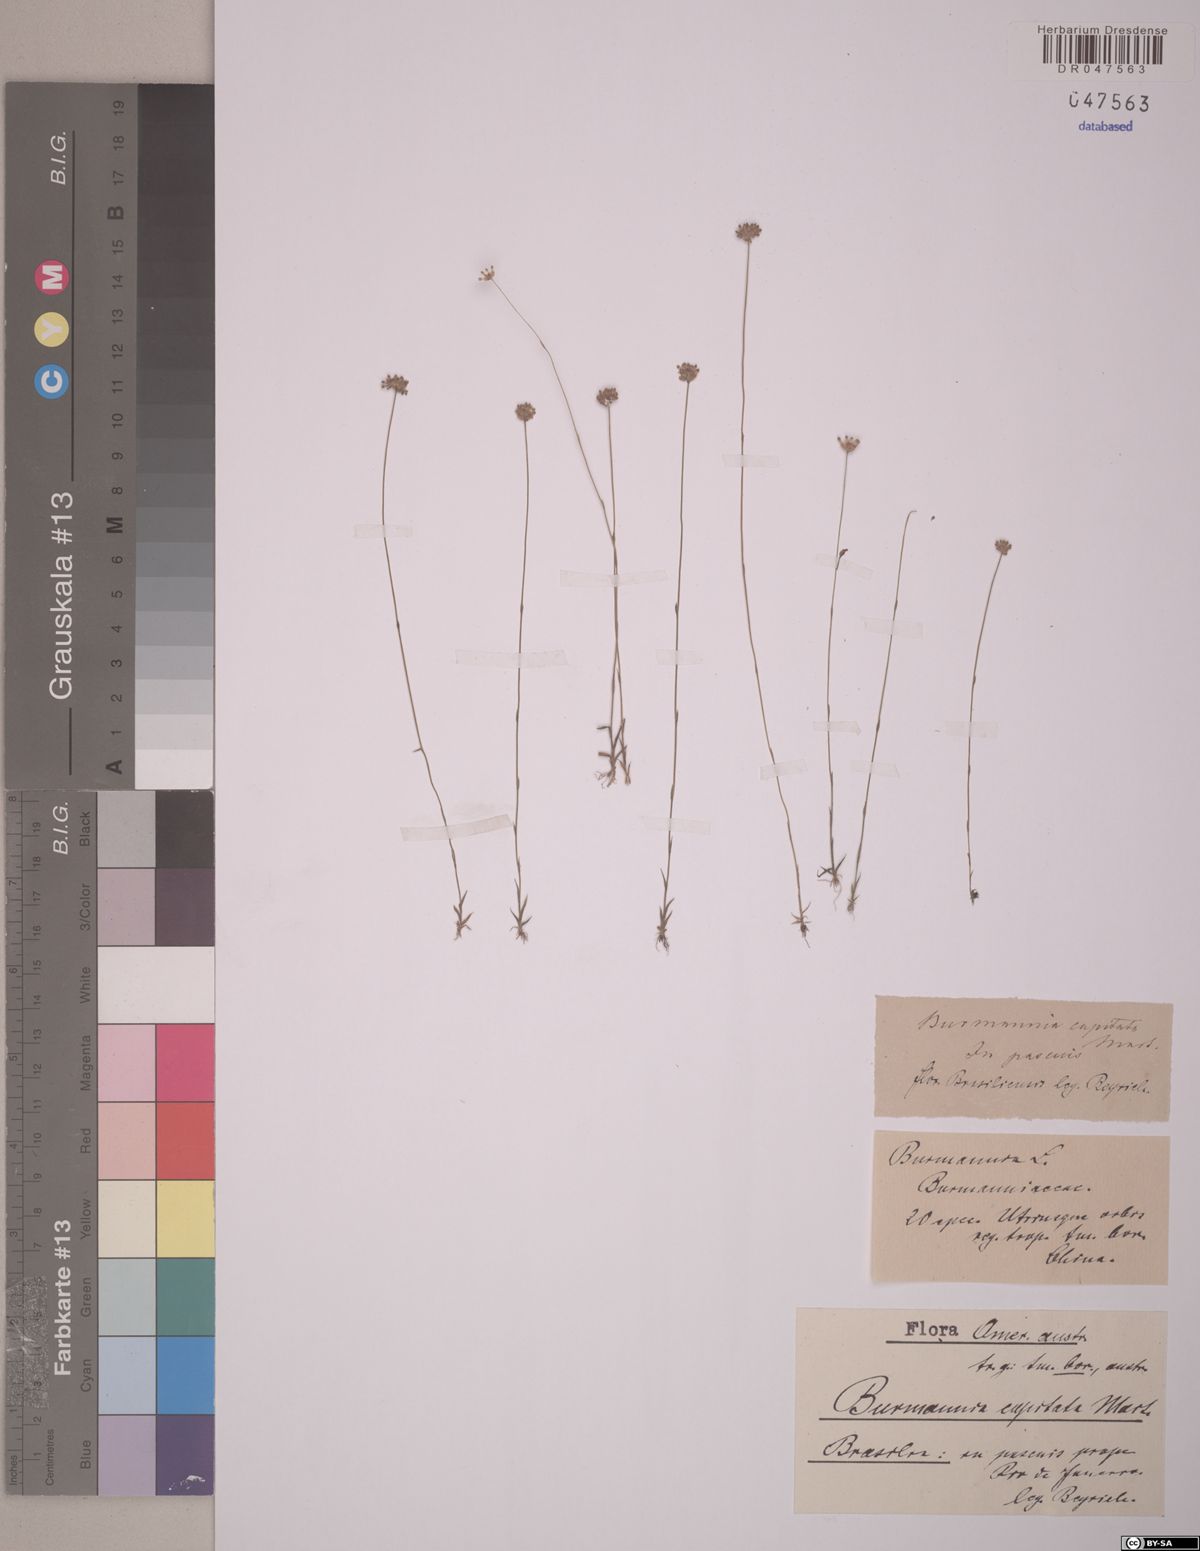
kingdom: Plantae
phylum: Tracheophyta
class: Liliopsida
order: Dioscoreales
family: Burmanniaceae
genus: Burmannia
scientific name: Burmannia capitata
